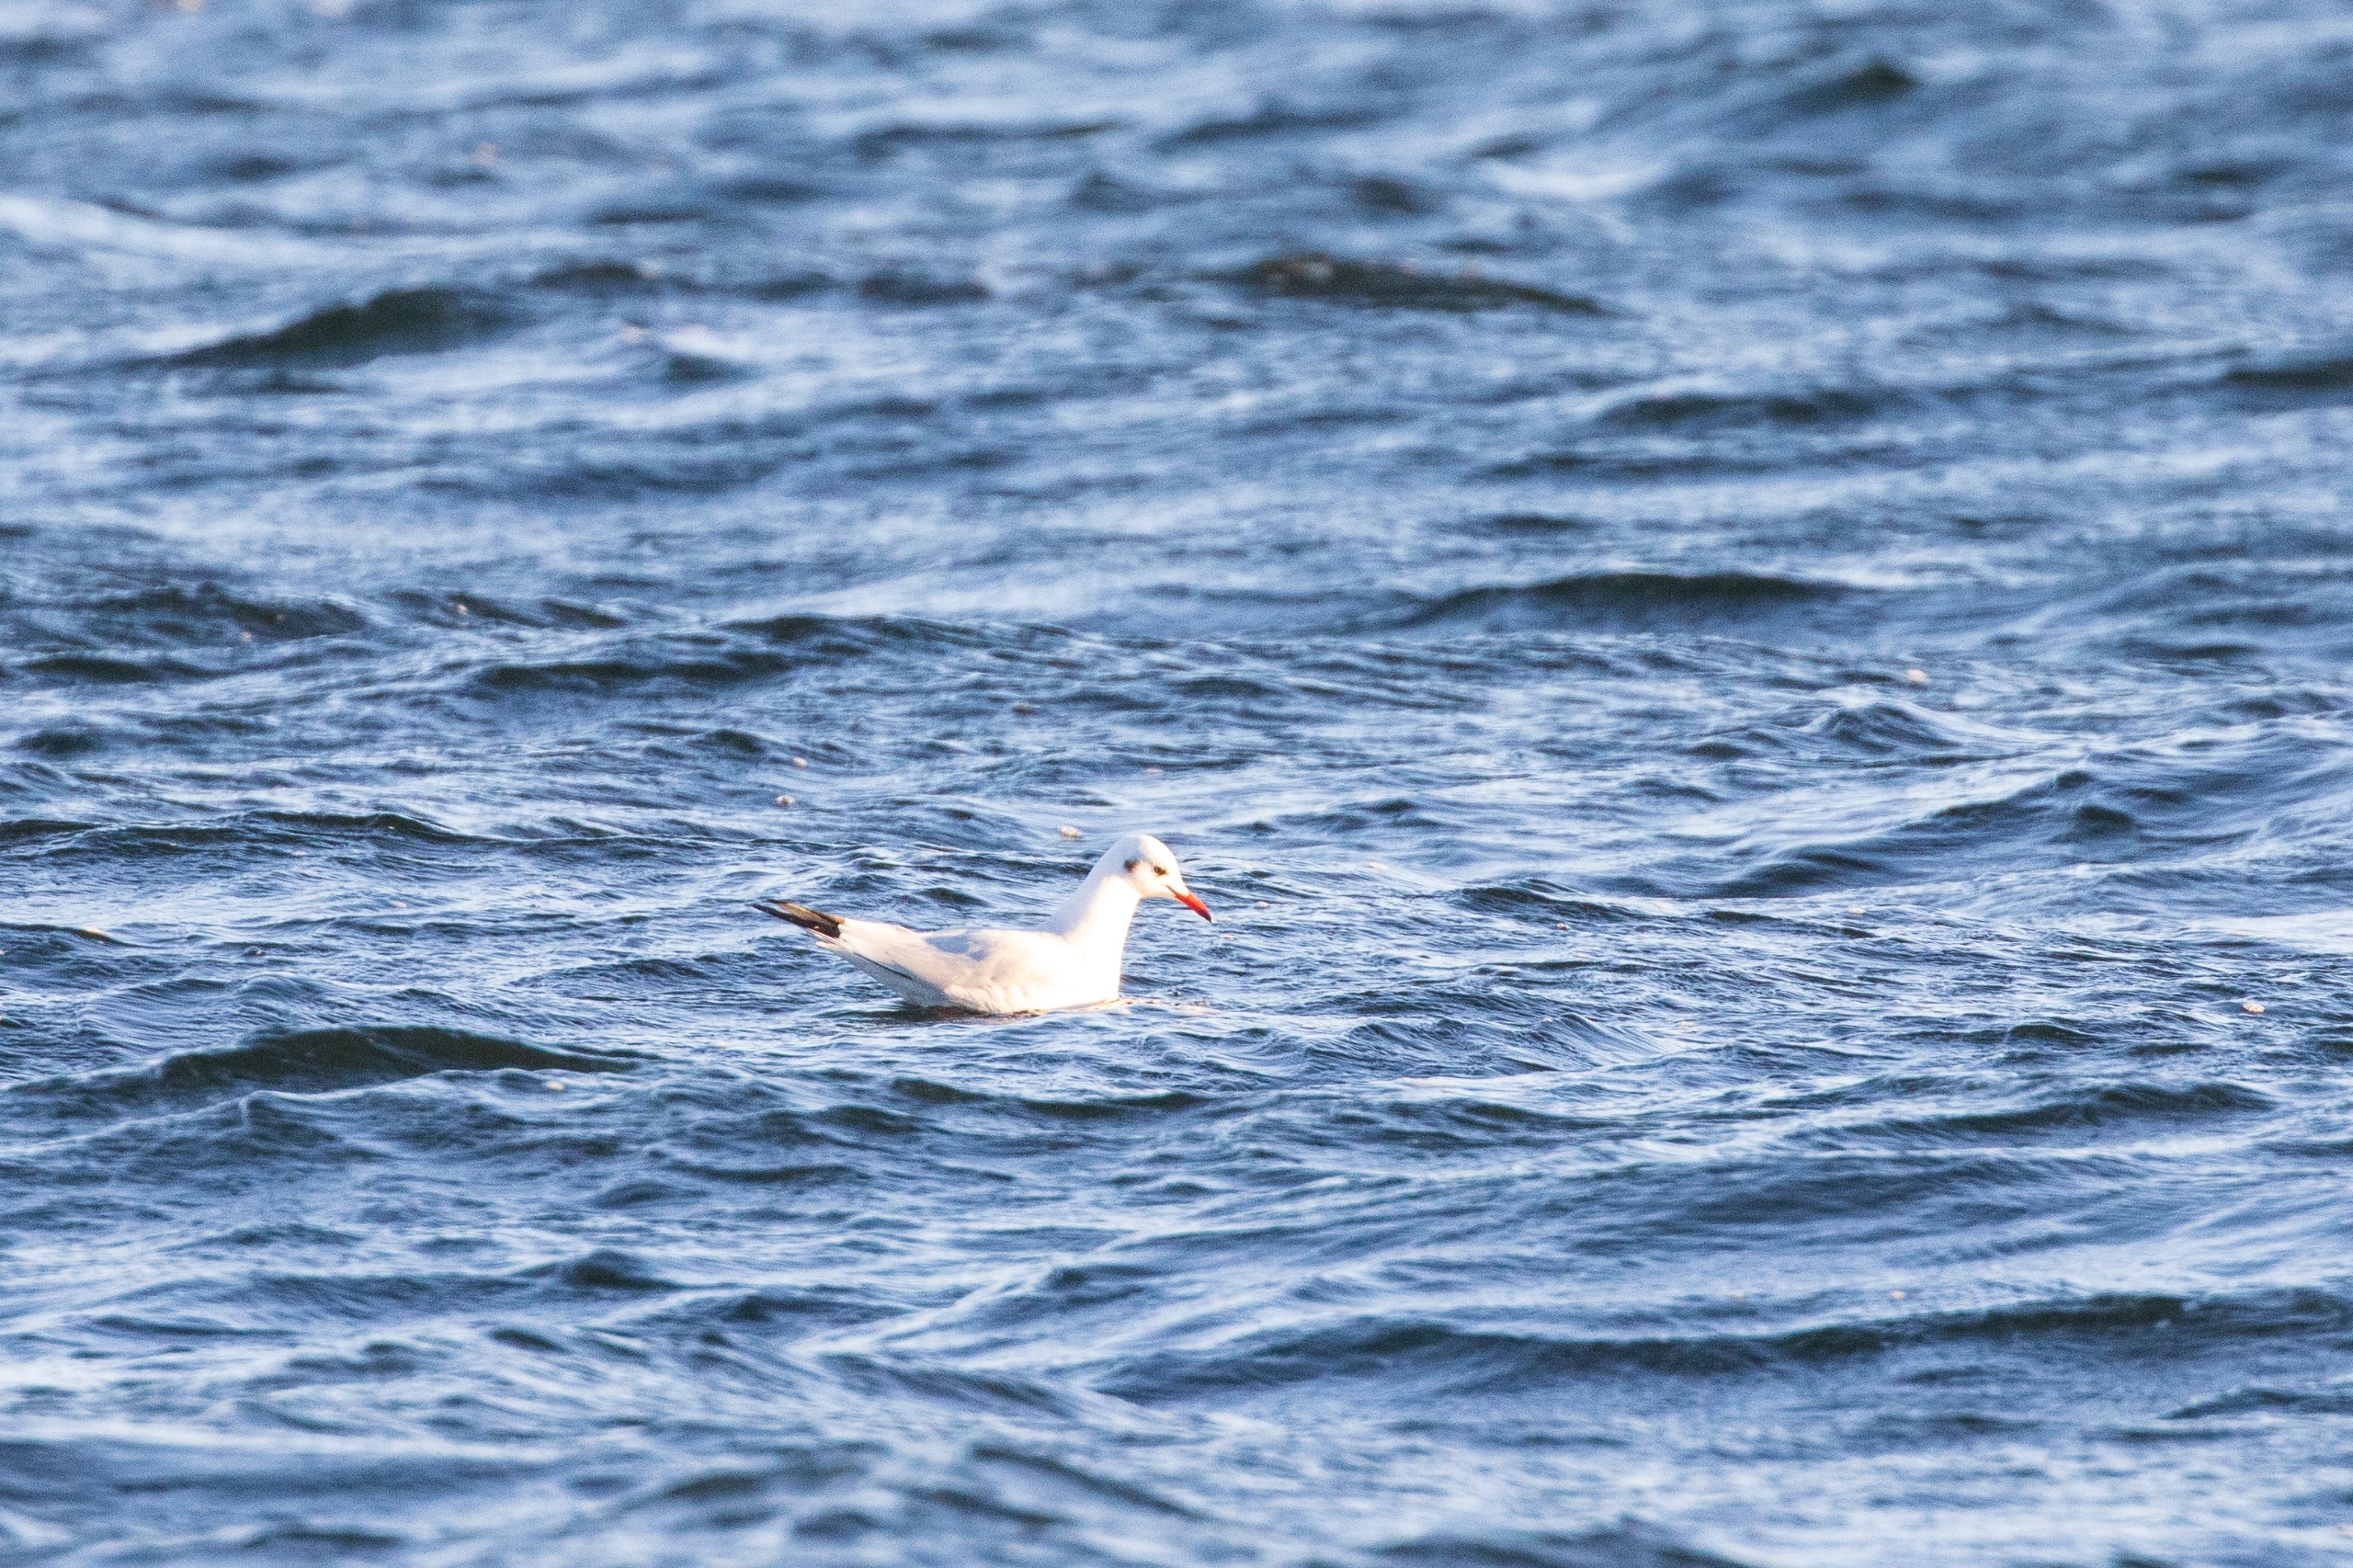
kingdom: Animalia
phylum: Chordata
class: Aves
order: Charadriiformes
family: Laridae
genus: Chroicocephalus
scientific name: Chroicocephalus ridibundus
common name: Hættemåge
